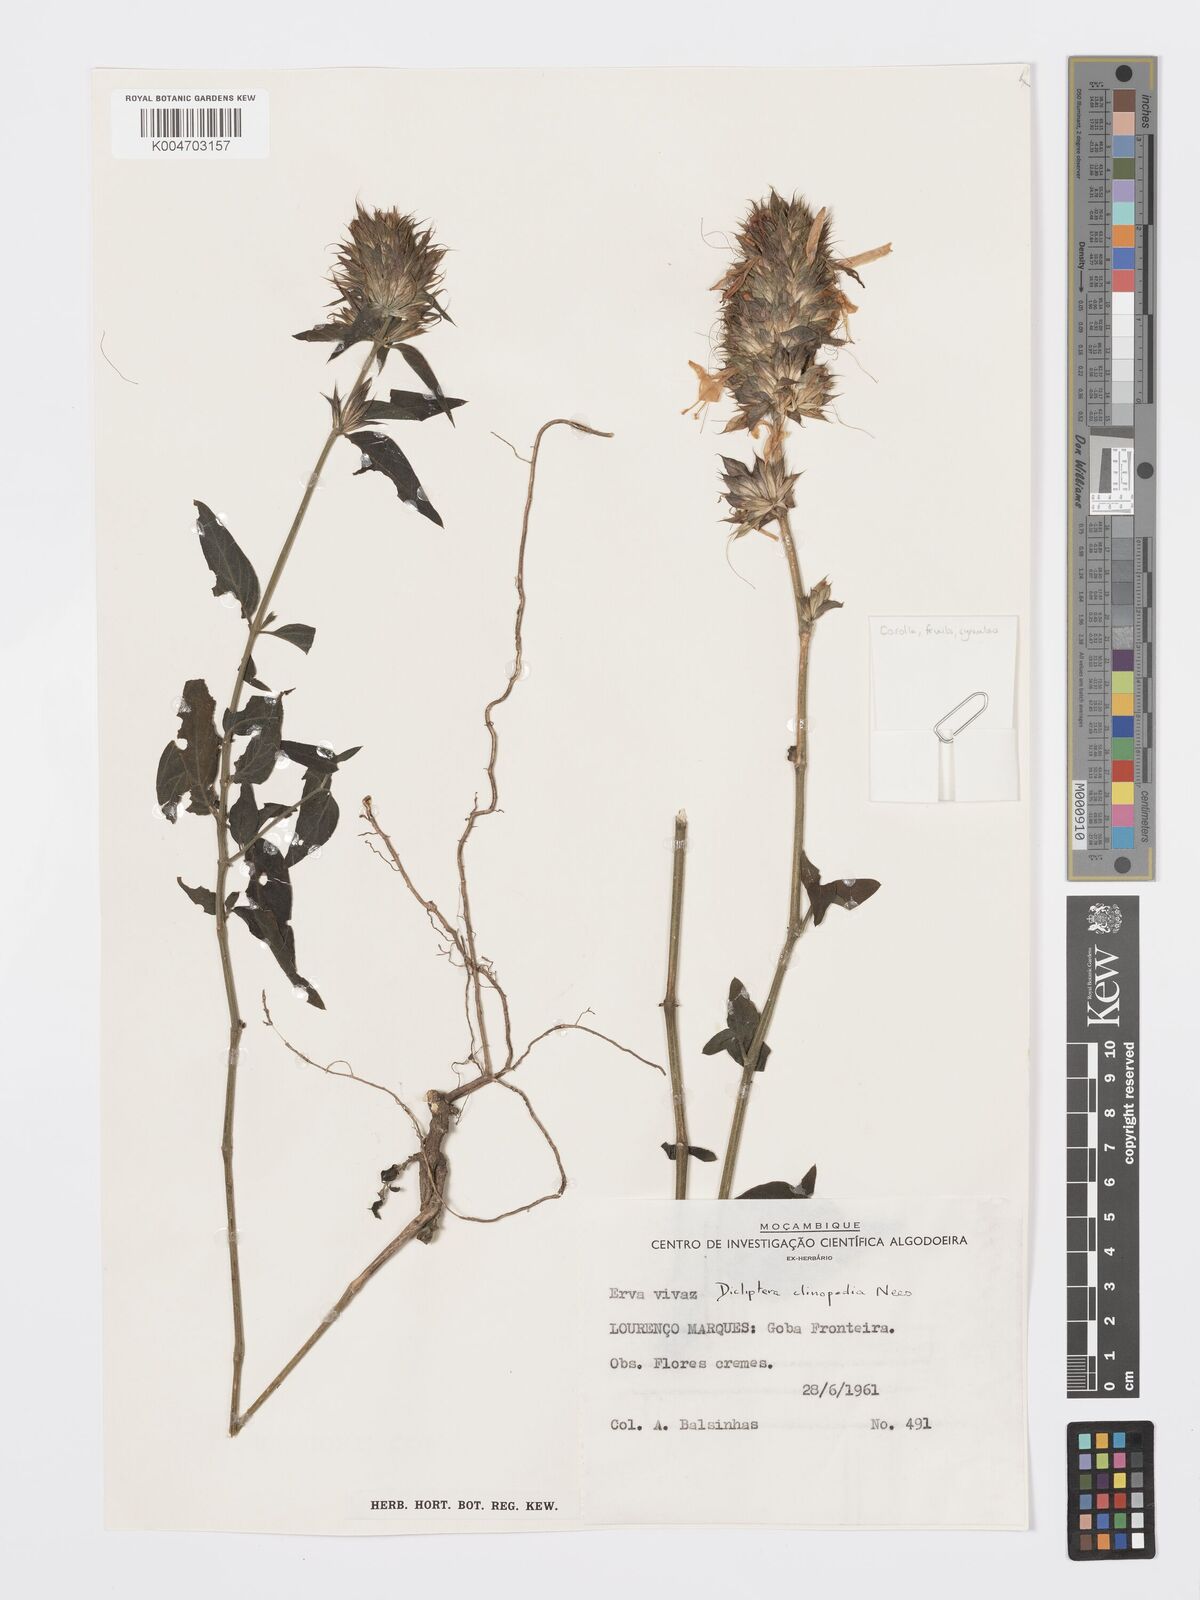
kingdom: Plantae
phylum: Tracheophyta
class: Magnoliopsida
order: Lamiales
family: Acanthaceae
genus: Dicliptera
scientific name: Dicliptera clinopodia
